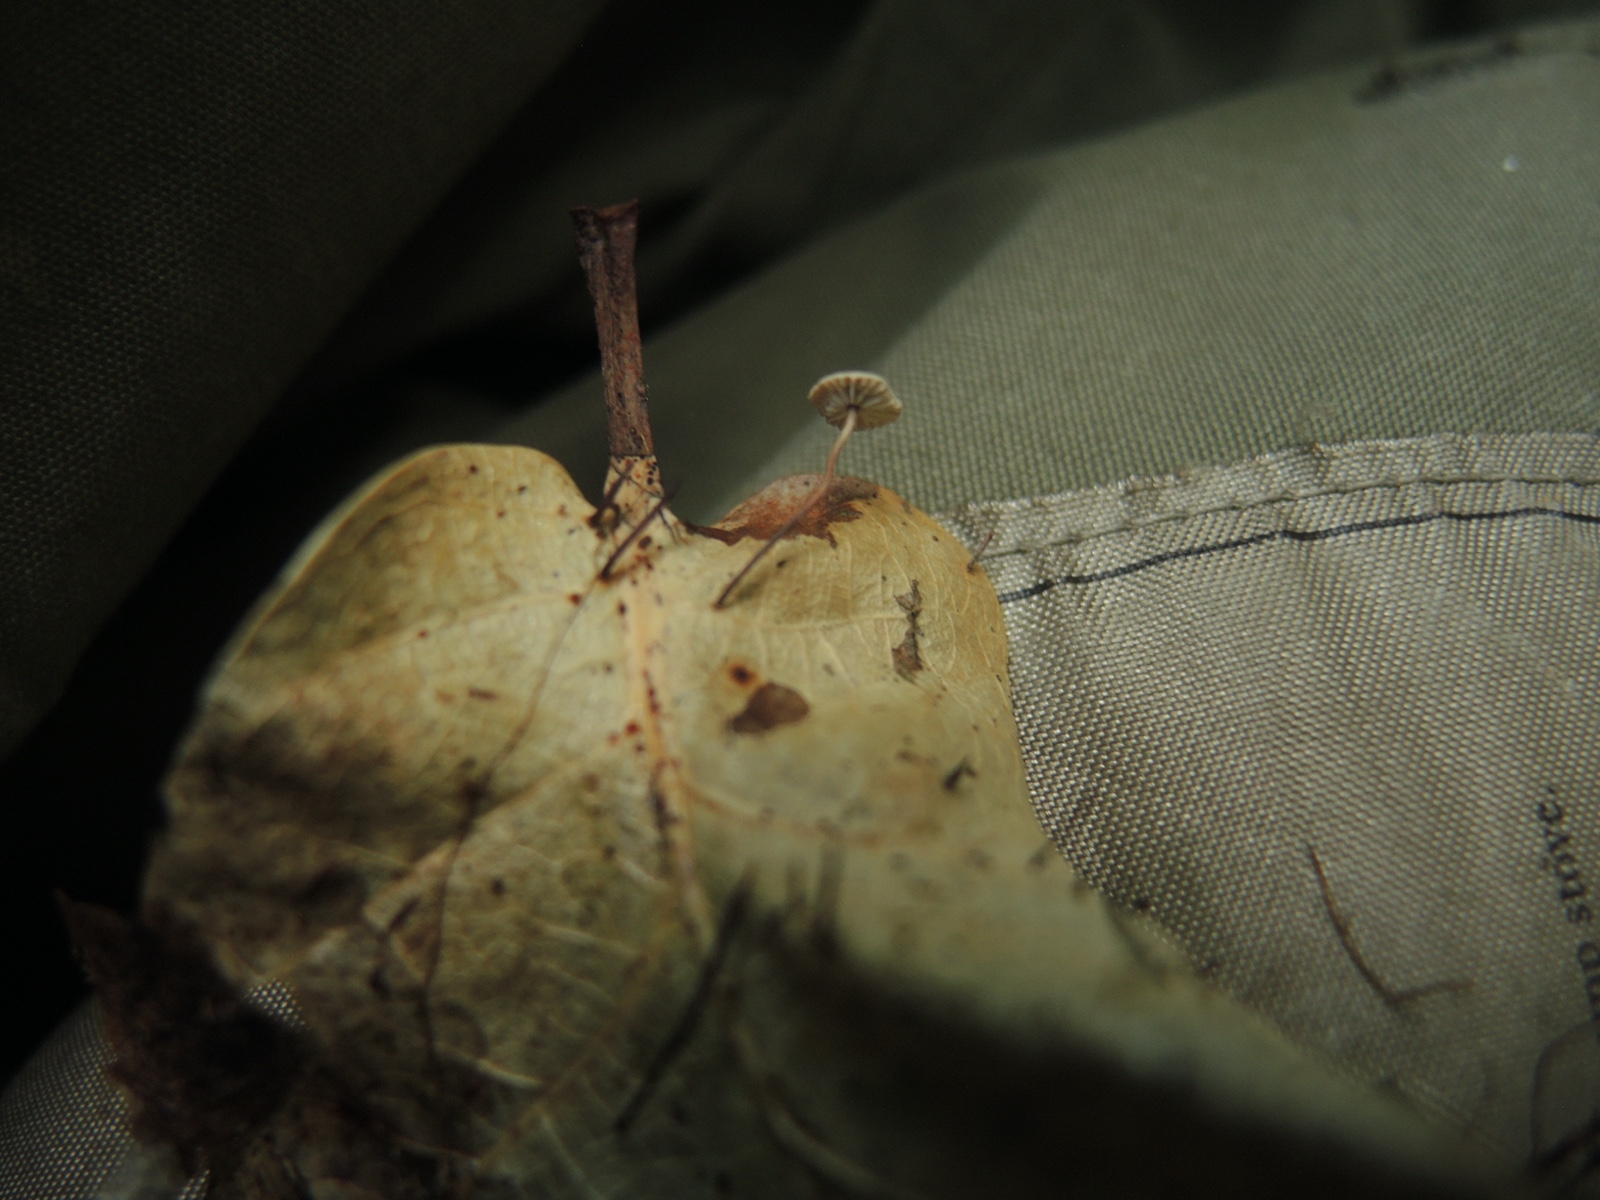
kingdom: Fungi
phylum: Basidiomycota
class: Agaricomycetes
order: Agaricales
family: Omphalotaceae
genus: Collybiopsis
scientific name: Collybiopsis quercophila
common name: egeblads-bruskhat
